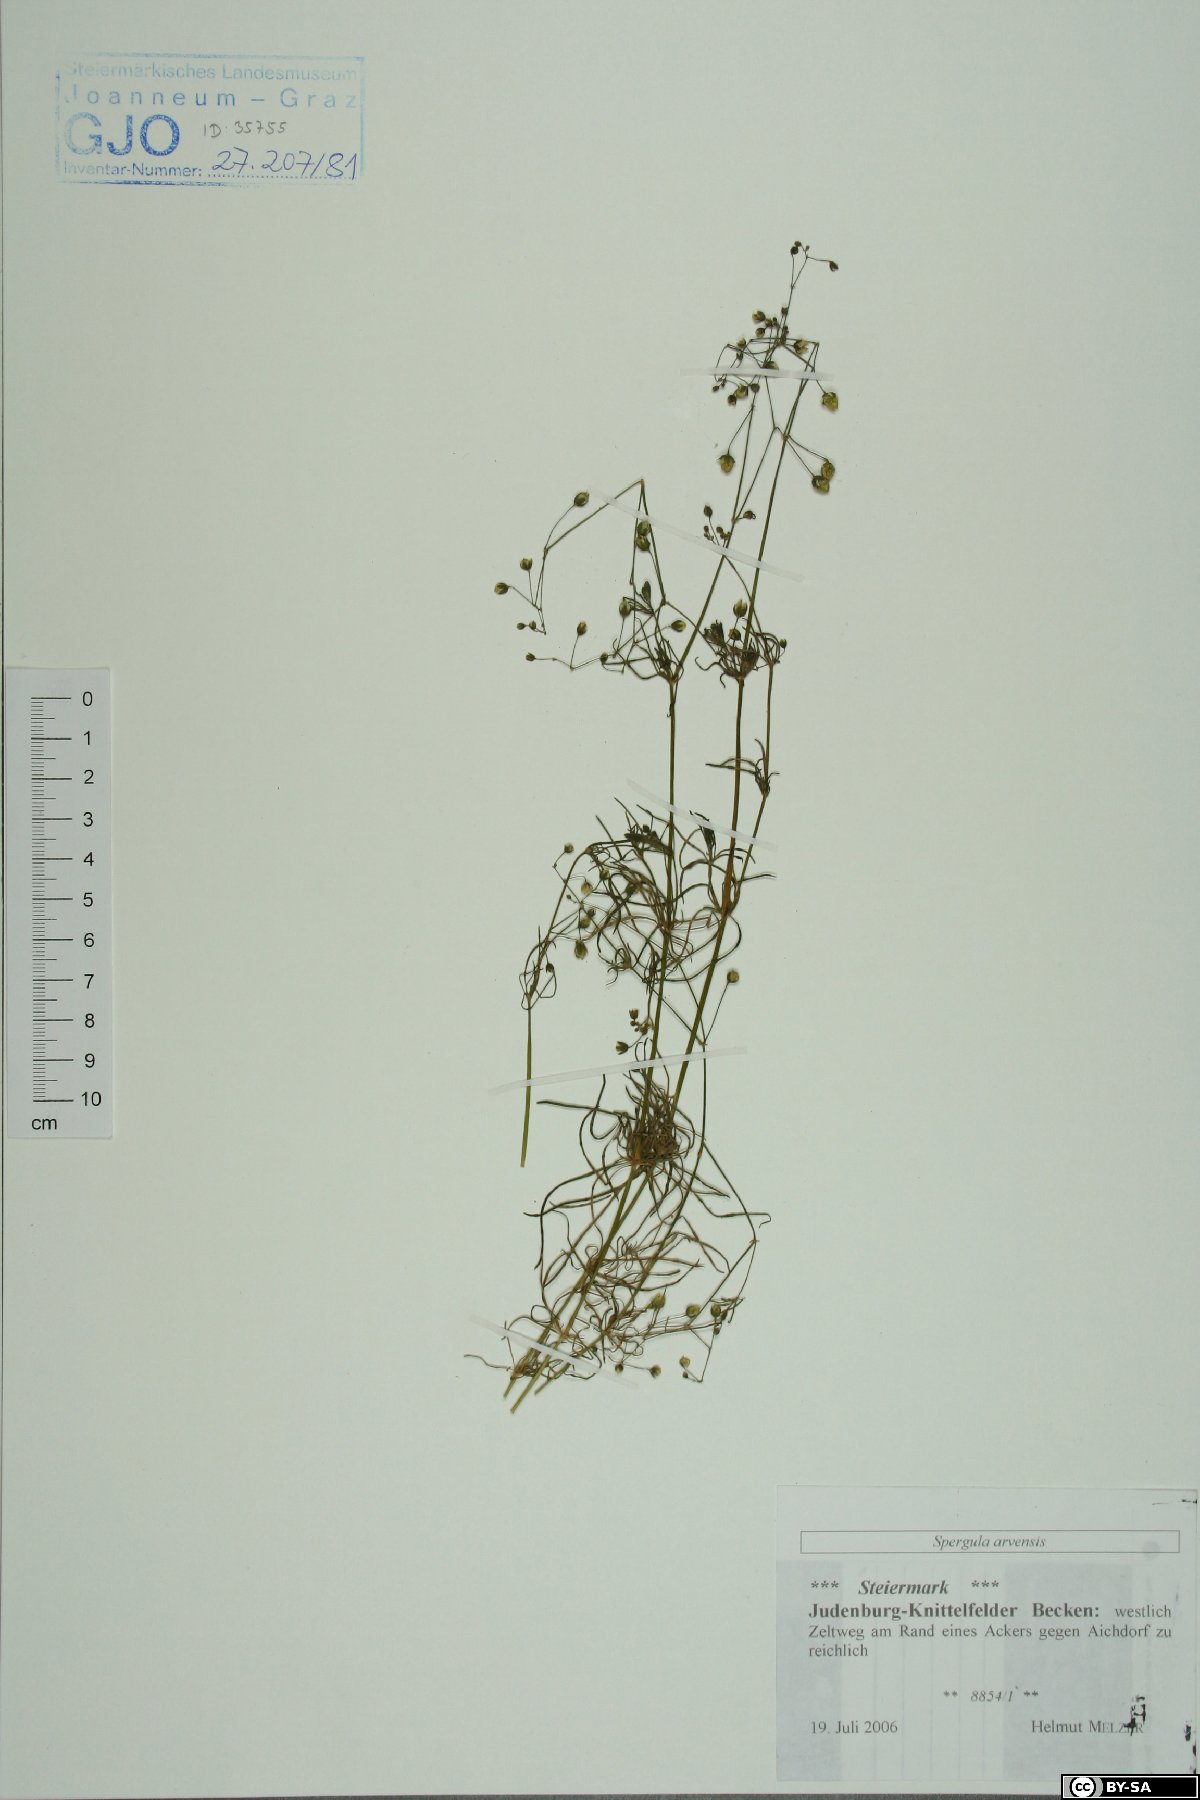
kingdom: Plantae
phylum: Tracheophyta
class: Magnoliopsida
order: Caryophyllales
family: Caryophyllaceae
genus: Spergula
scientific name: Spergula arvensis
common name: Corn spurrey
